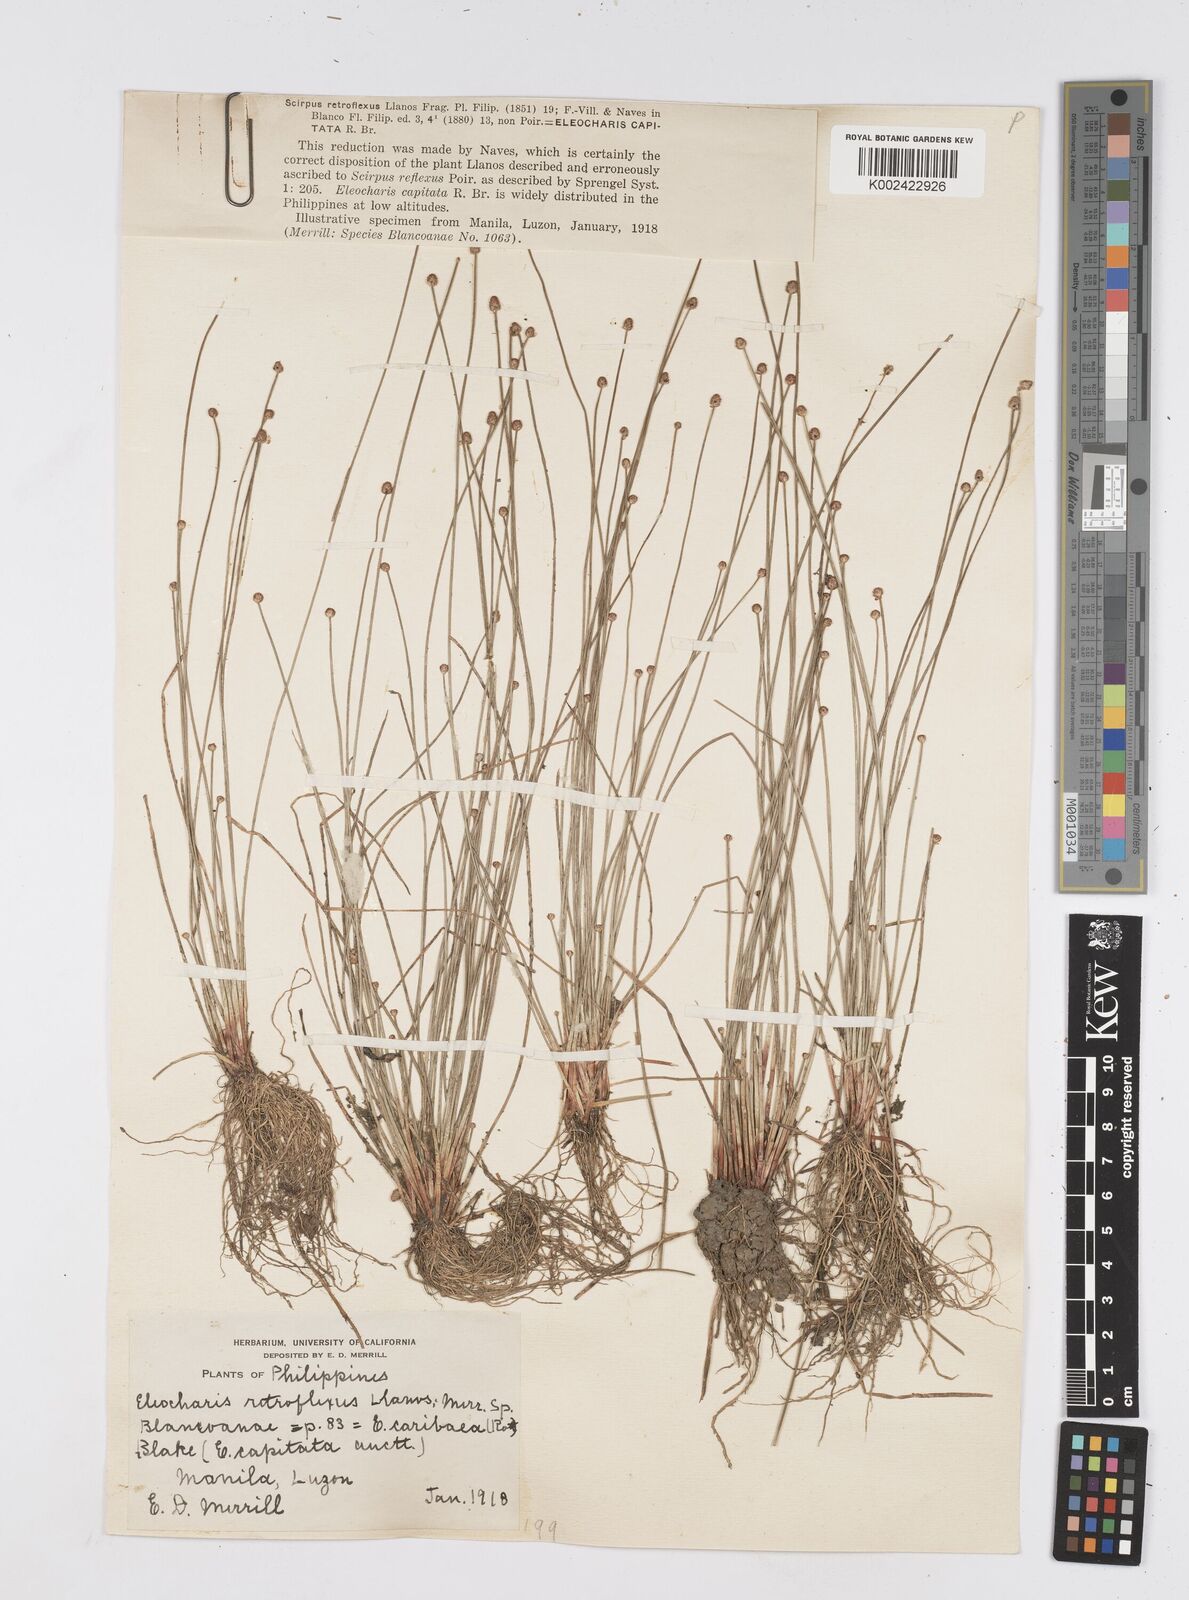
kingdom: Plantae
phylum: Tracheophyta
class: Liliopsida
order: Poales
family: Cyperaceae
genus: Eleocharis
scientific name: Eleocharis geniculata
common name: Canada spikesedge
